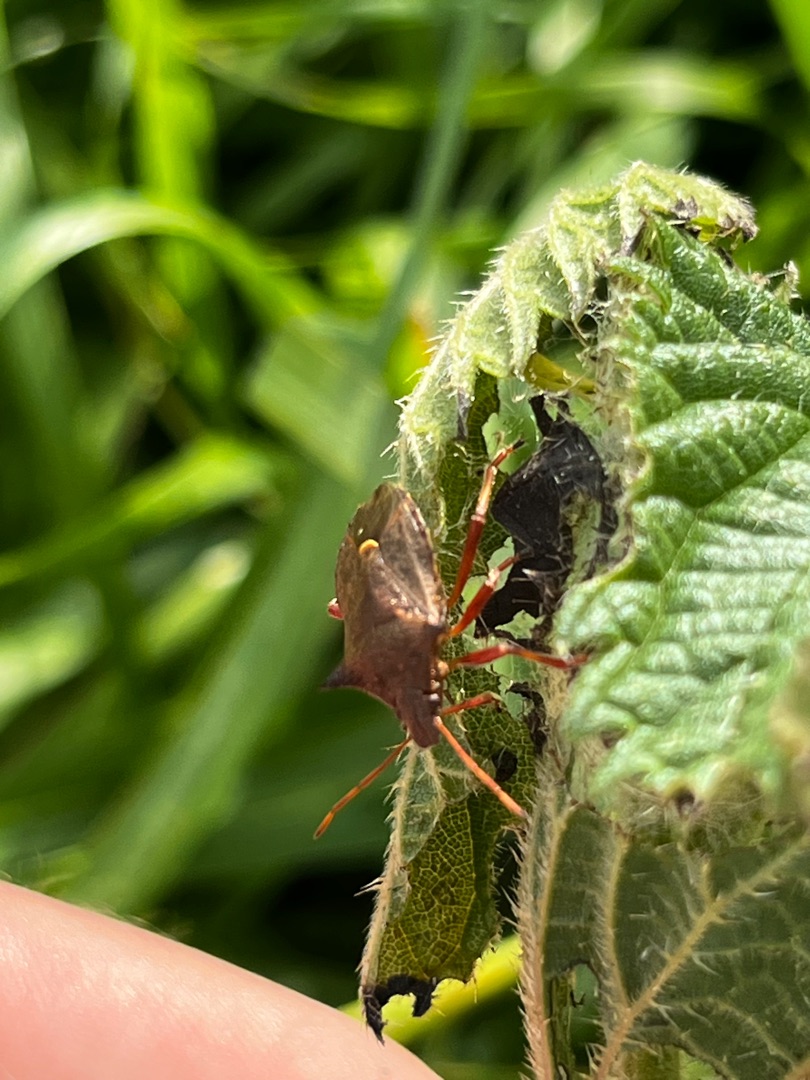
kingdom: Animalia
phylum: Arthropoda
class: Insecta
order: Hemiptera
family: Pentatomidae
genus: Picromerus
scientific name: Picromerus bidens
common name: Torntæge
